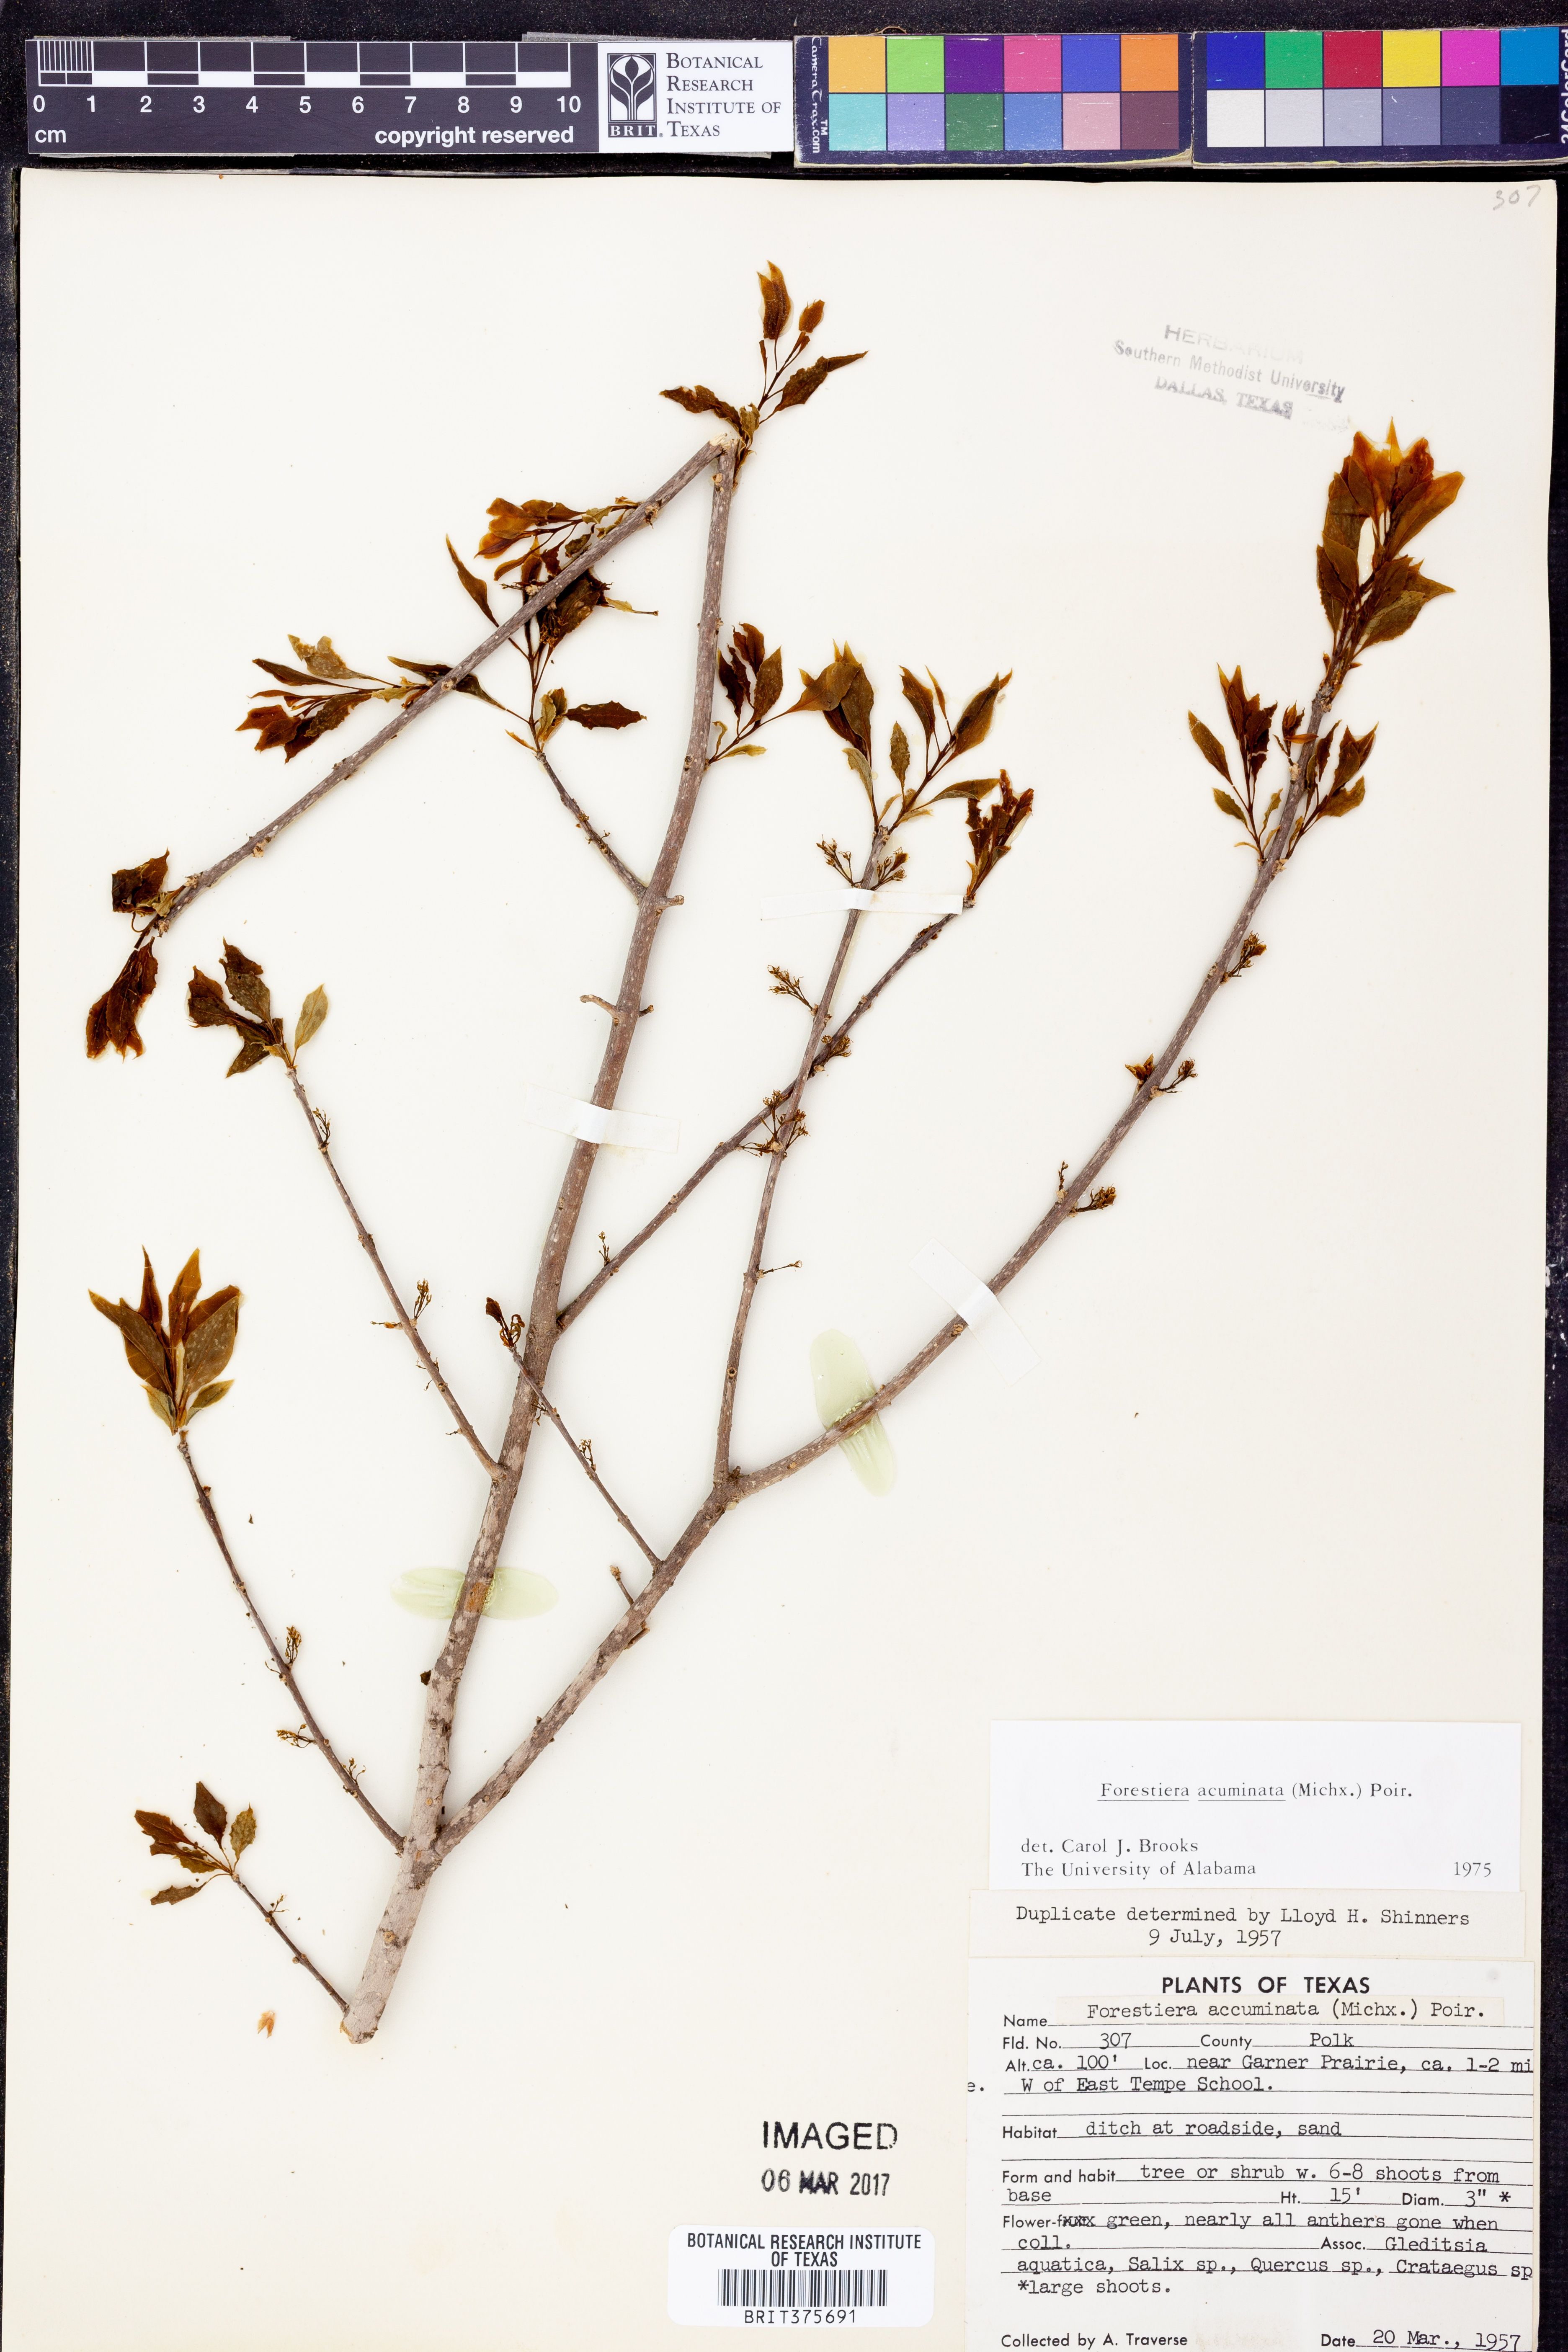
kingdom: Plantae
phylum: Tracheophyta
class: Magnoliopsida
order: Lamiales
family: Oleaceae
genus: Forestiera
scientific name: Forestiera acuminata
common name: Swamp-privet
